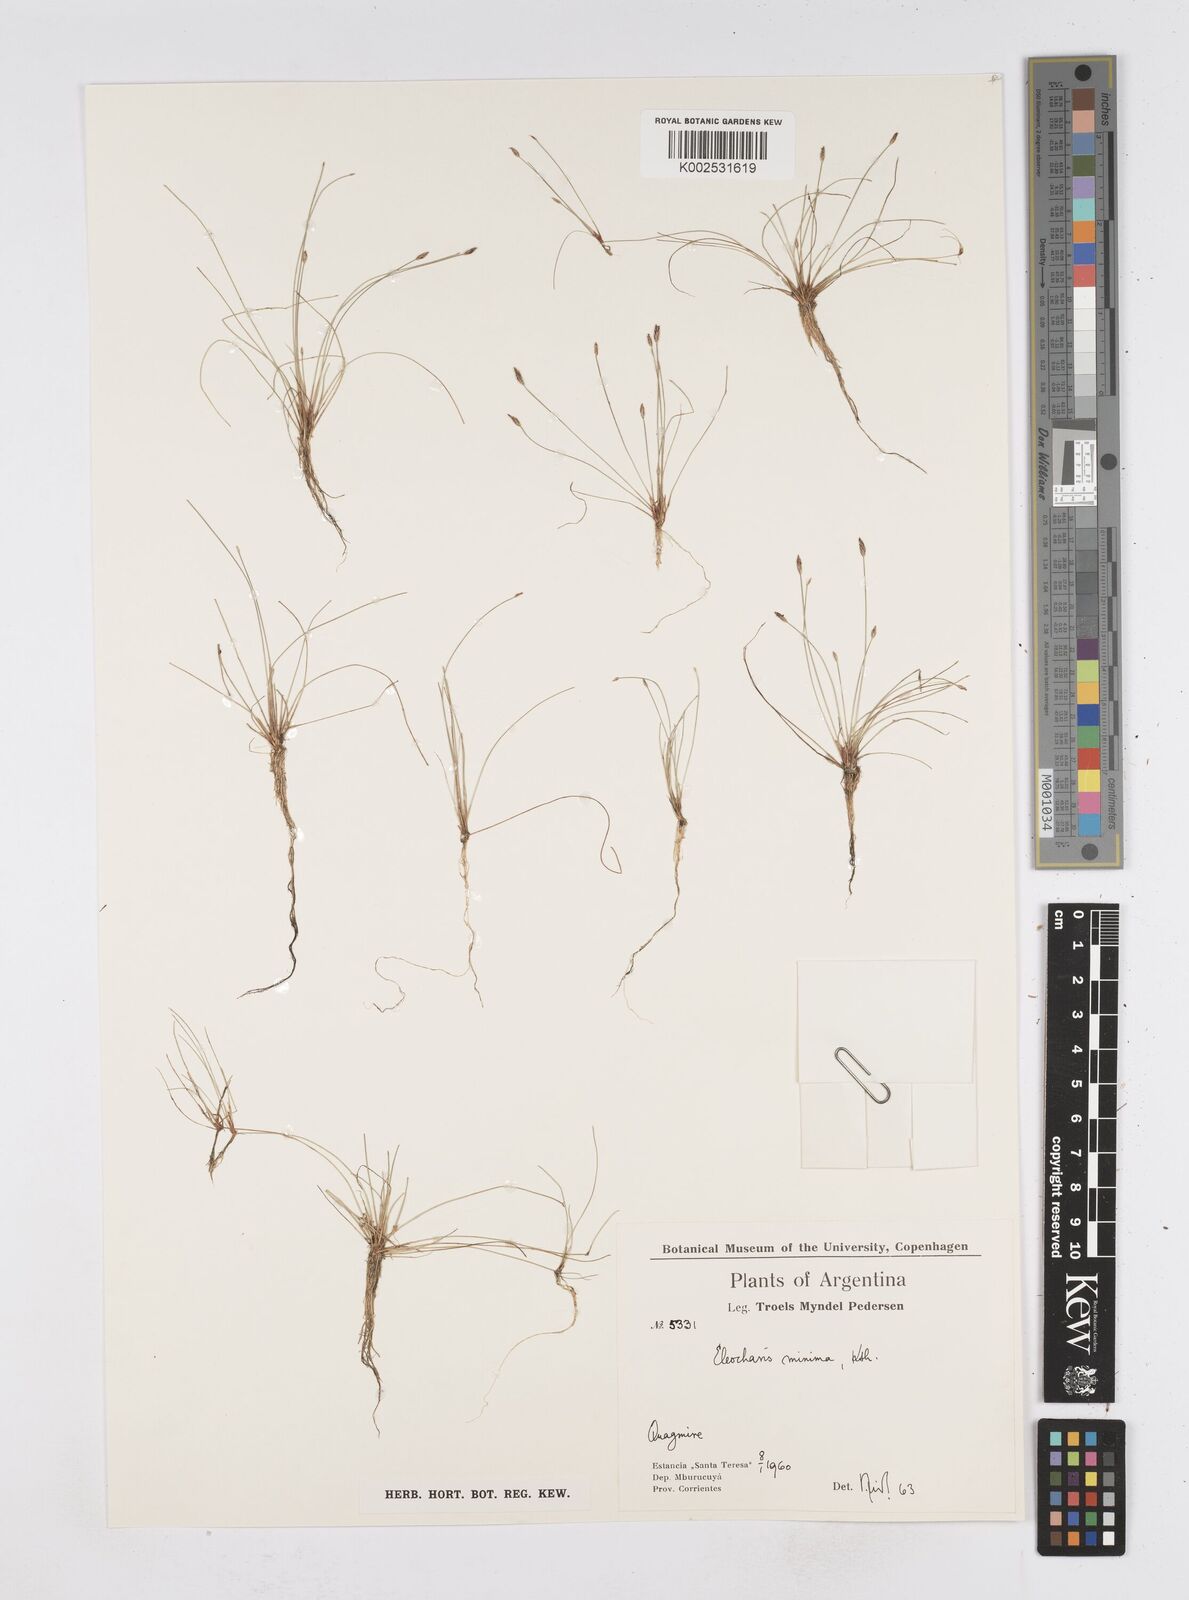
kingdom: Plantae
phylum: Tracheophyta
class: Liliopsida
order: Poales
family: Cyperaceae
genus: Eleocharis
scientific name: Eleocharis minima
